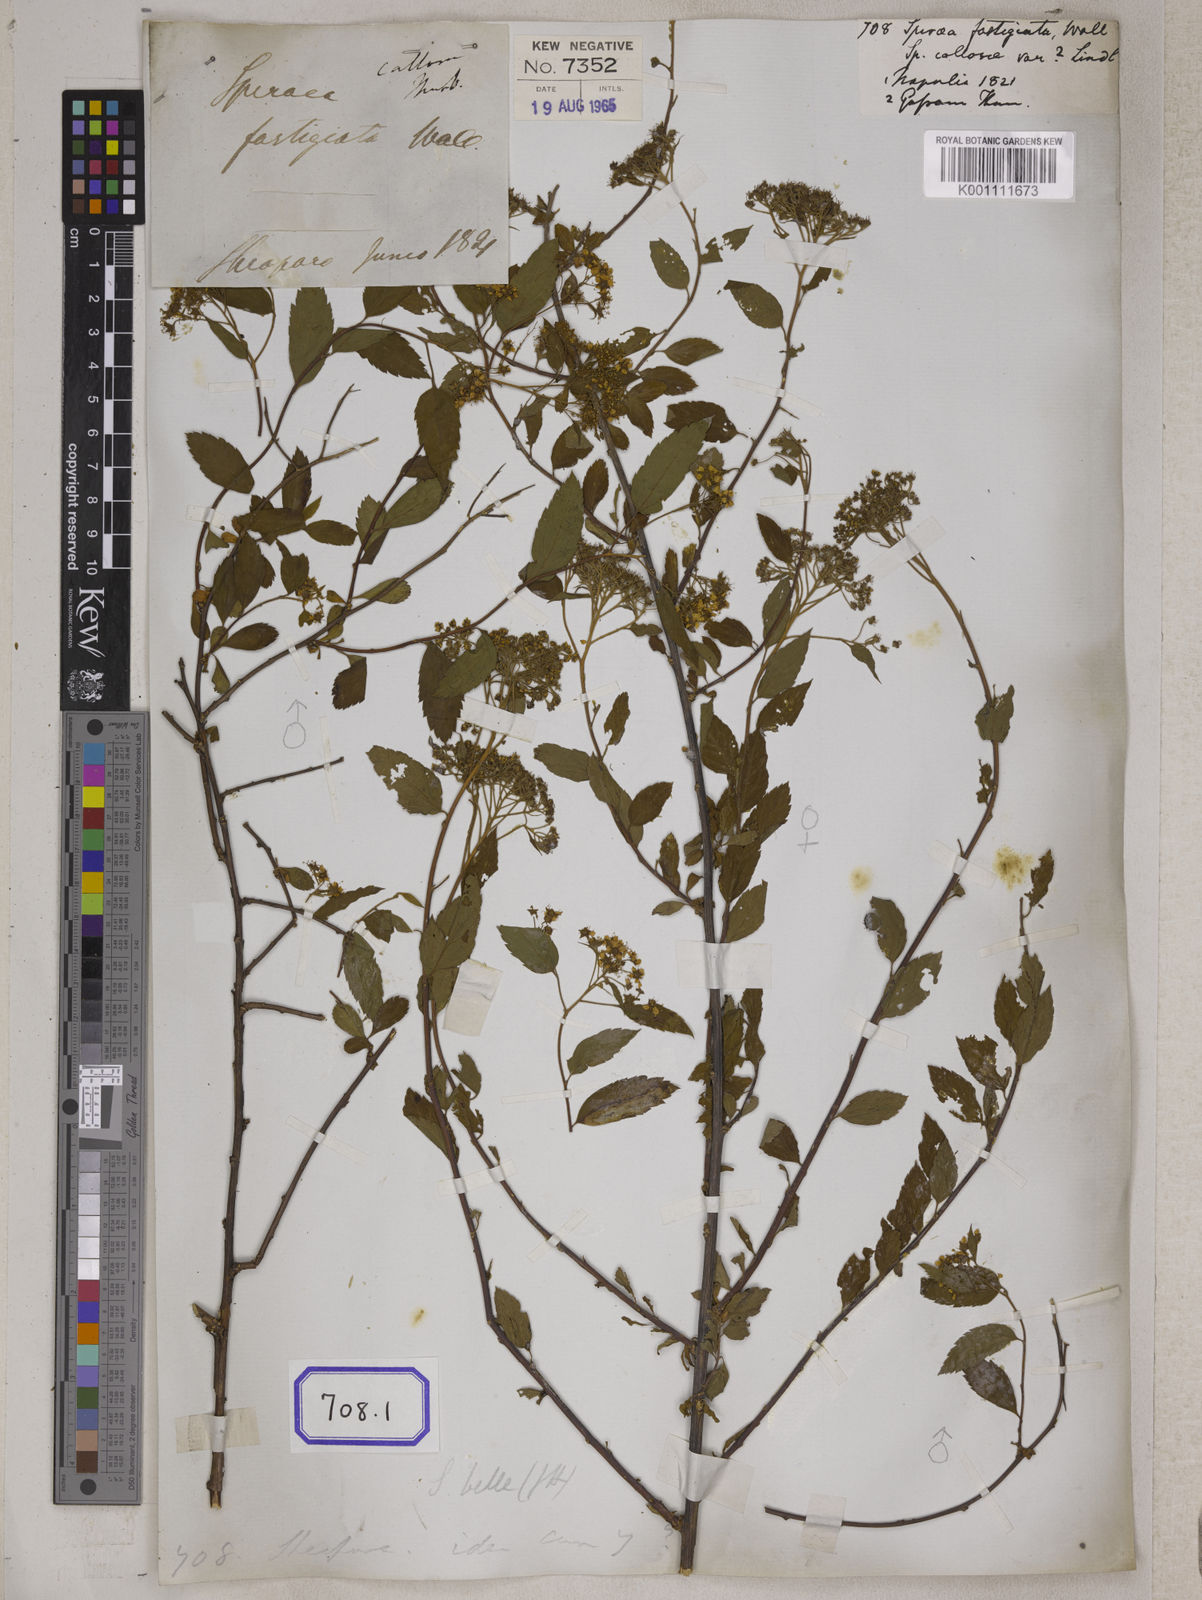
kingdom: Plantae
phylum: Tracheophyta
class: Magnoliopsida
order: Rosales
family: Rosaceae
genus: Spiraea
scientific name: Spiraea
